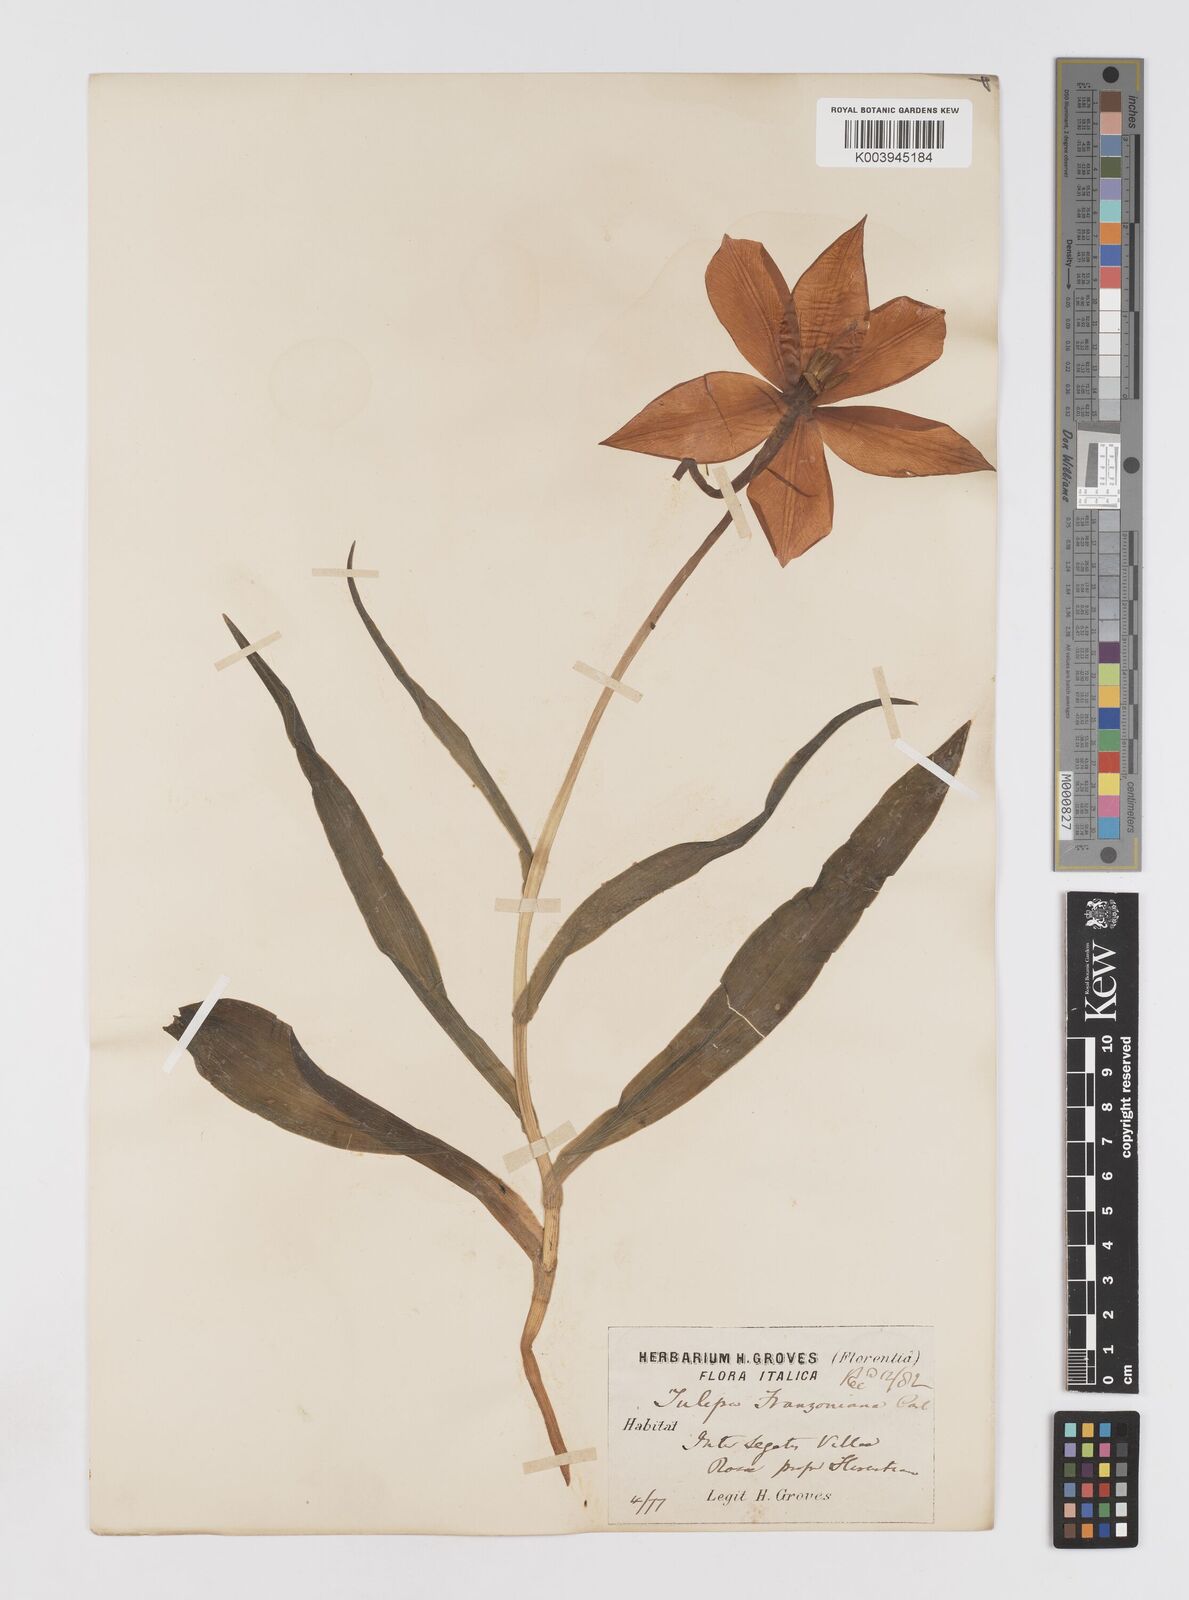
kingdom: Plantae
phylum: Tracheophyta
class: Liliopsida
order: Liliales
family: Liliaceae
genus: Tulipa
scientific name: Tulipa gesneriana
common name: Garden tulip
